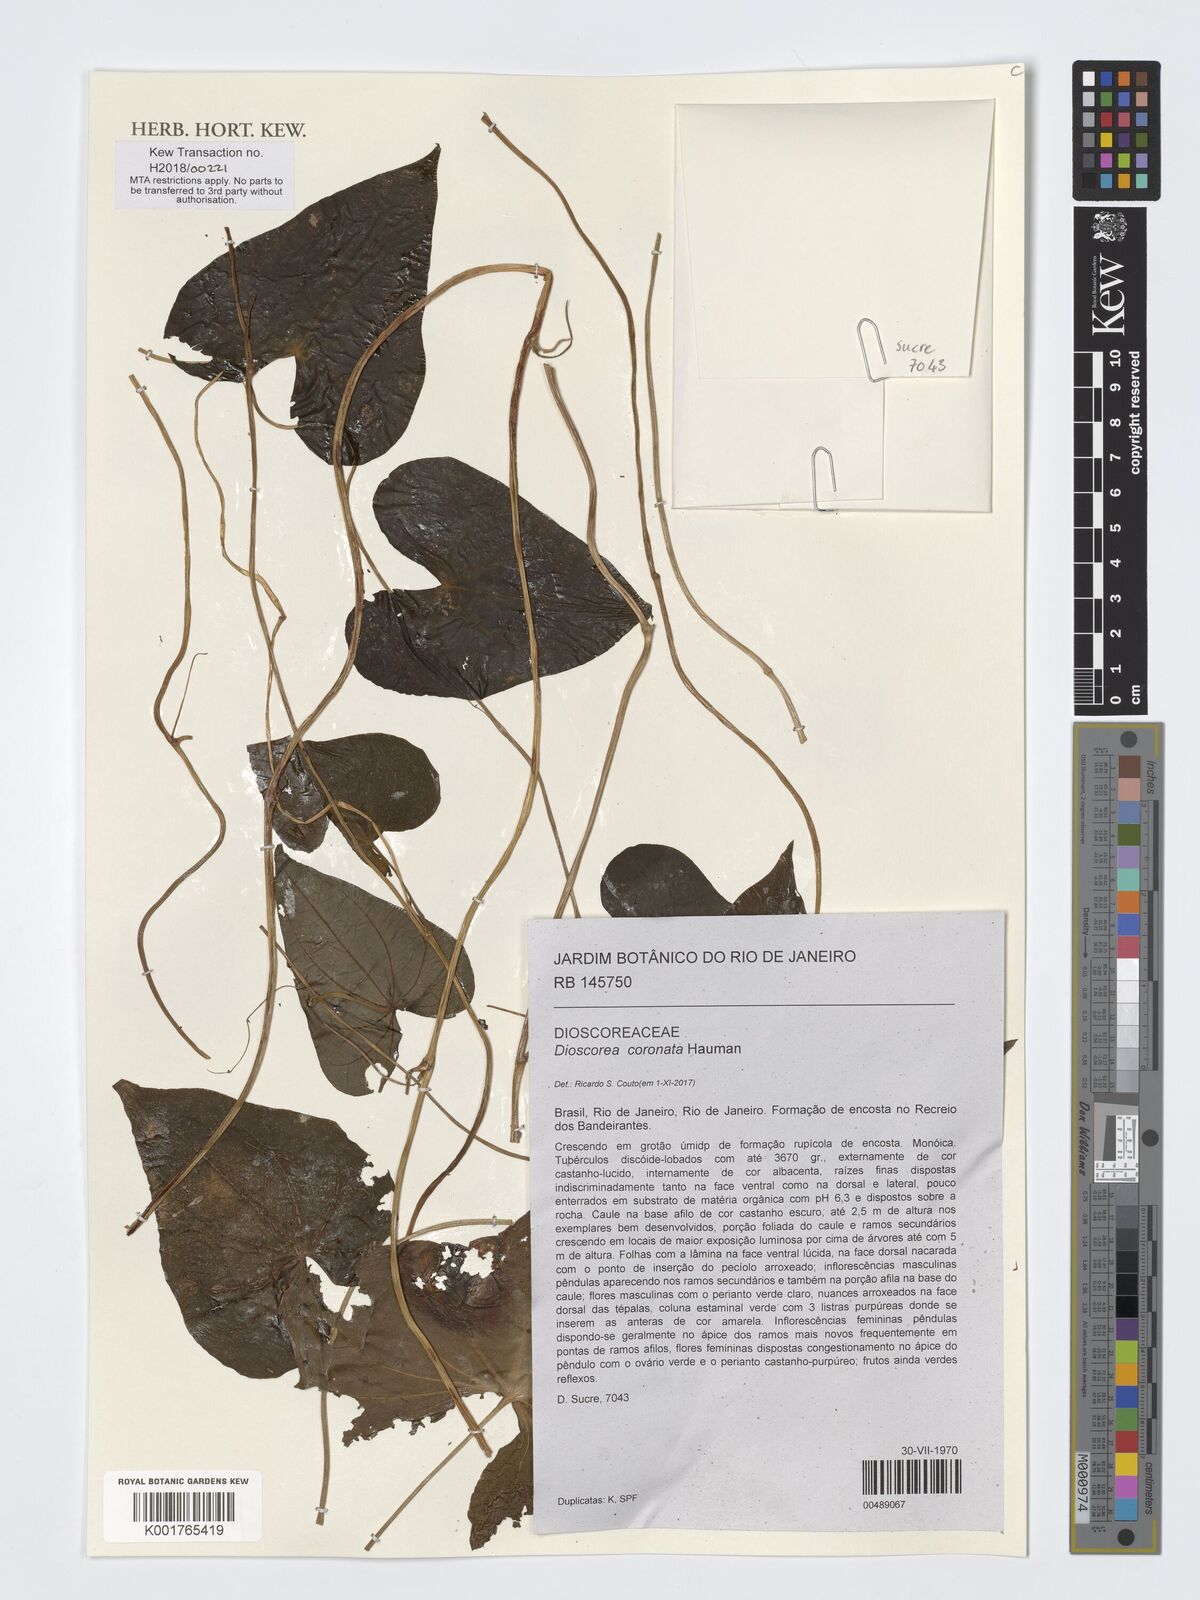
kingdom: Plantae
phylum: Tracheophyta
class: Liliopsida
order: Dioscoreales
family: Dioscoreaceae
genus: Dioscorea
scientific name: Dioscorea coronata
